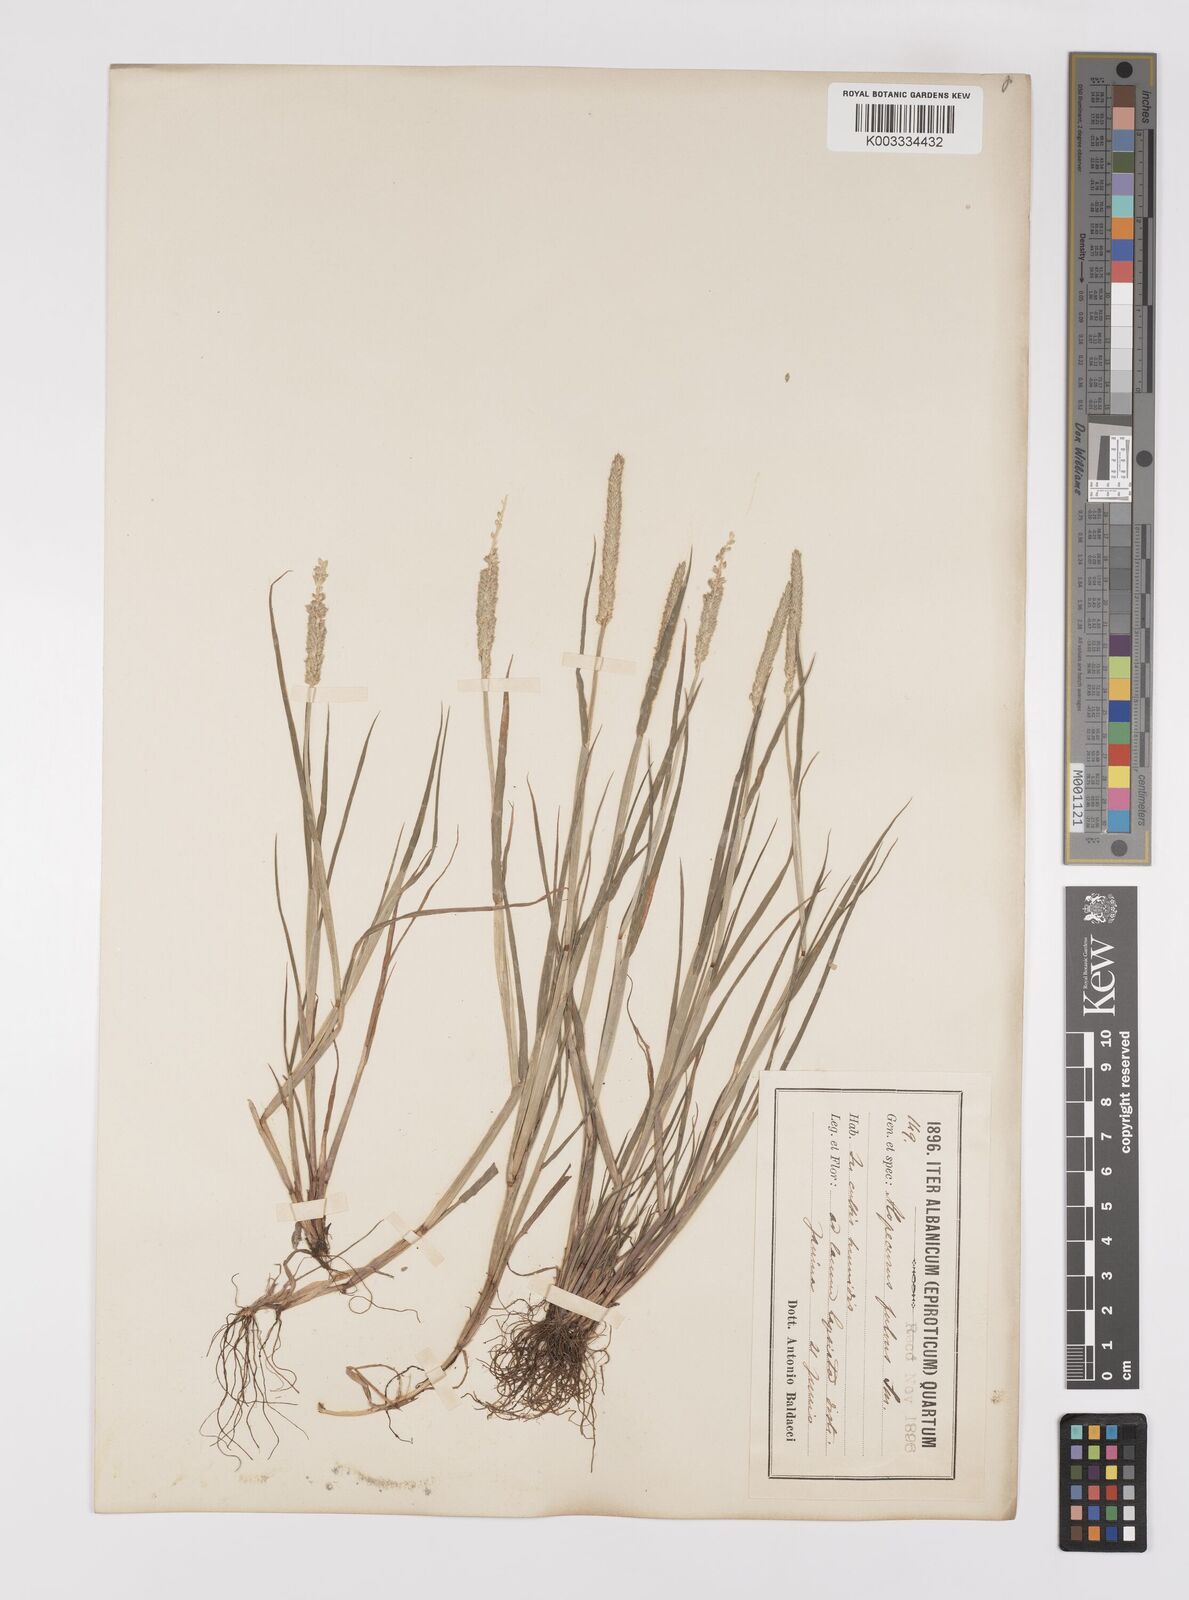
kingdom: Plantae
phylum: Tracheophyta
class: Liliopsida
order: Poales
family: Poaceae
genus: Alopecurus
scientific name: Alopecurus aequalis
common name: Orange foxtail
